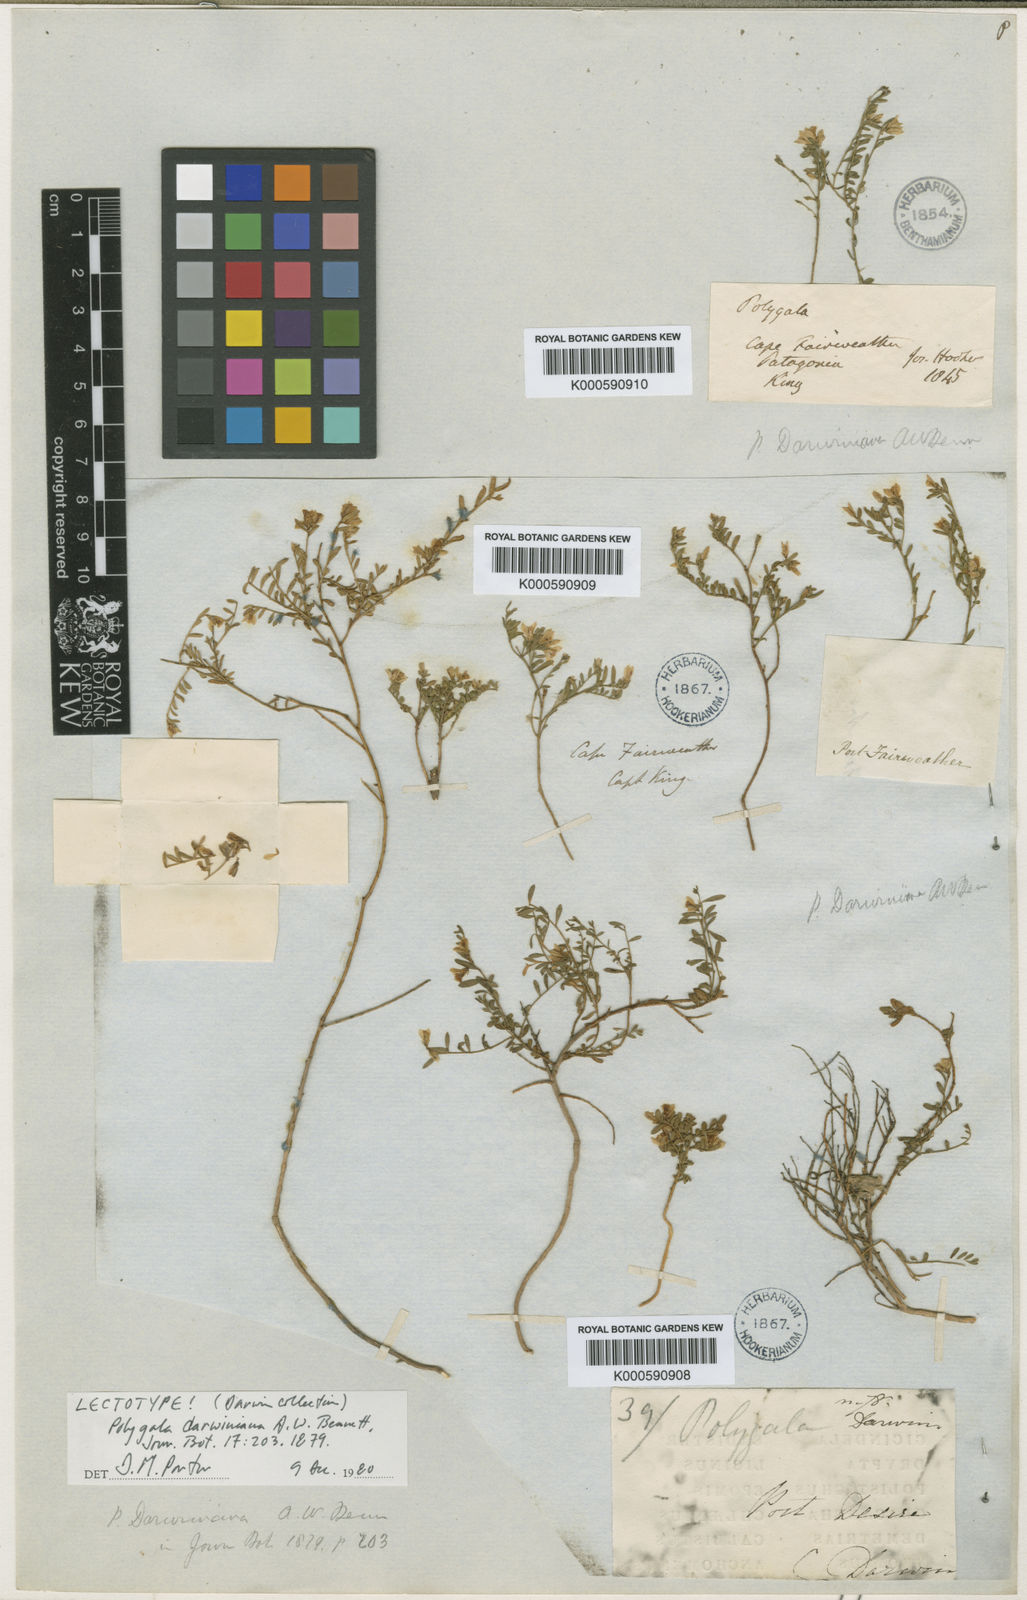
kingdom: Plantae
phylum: Tracheophyta
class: Magnoliopsida
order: Fabales
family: Polygalaceae
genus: Acanthocladus
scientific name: Acanthocladus tehuelchum
